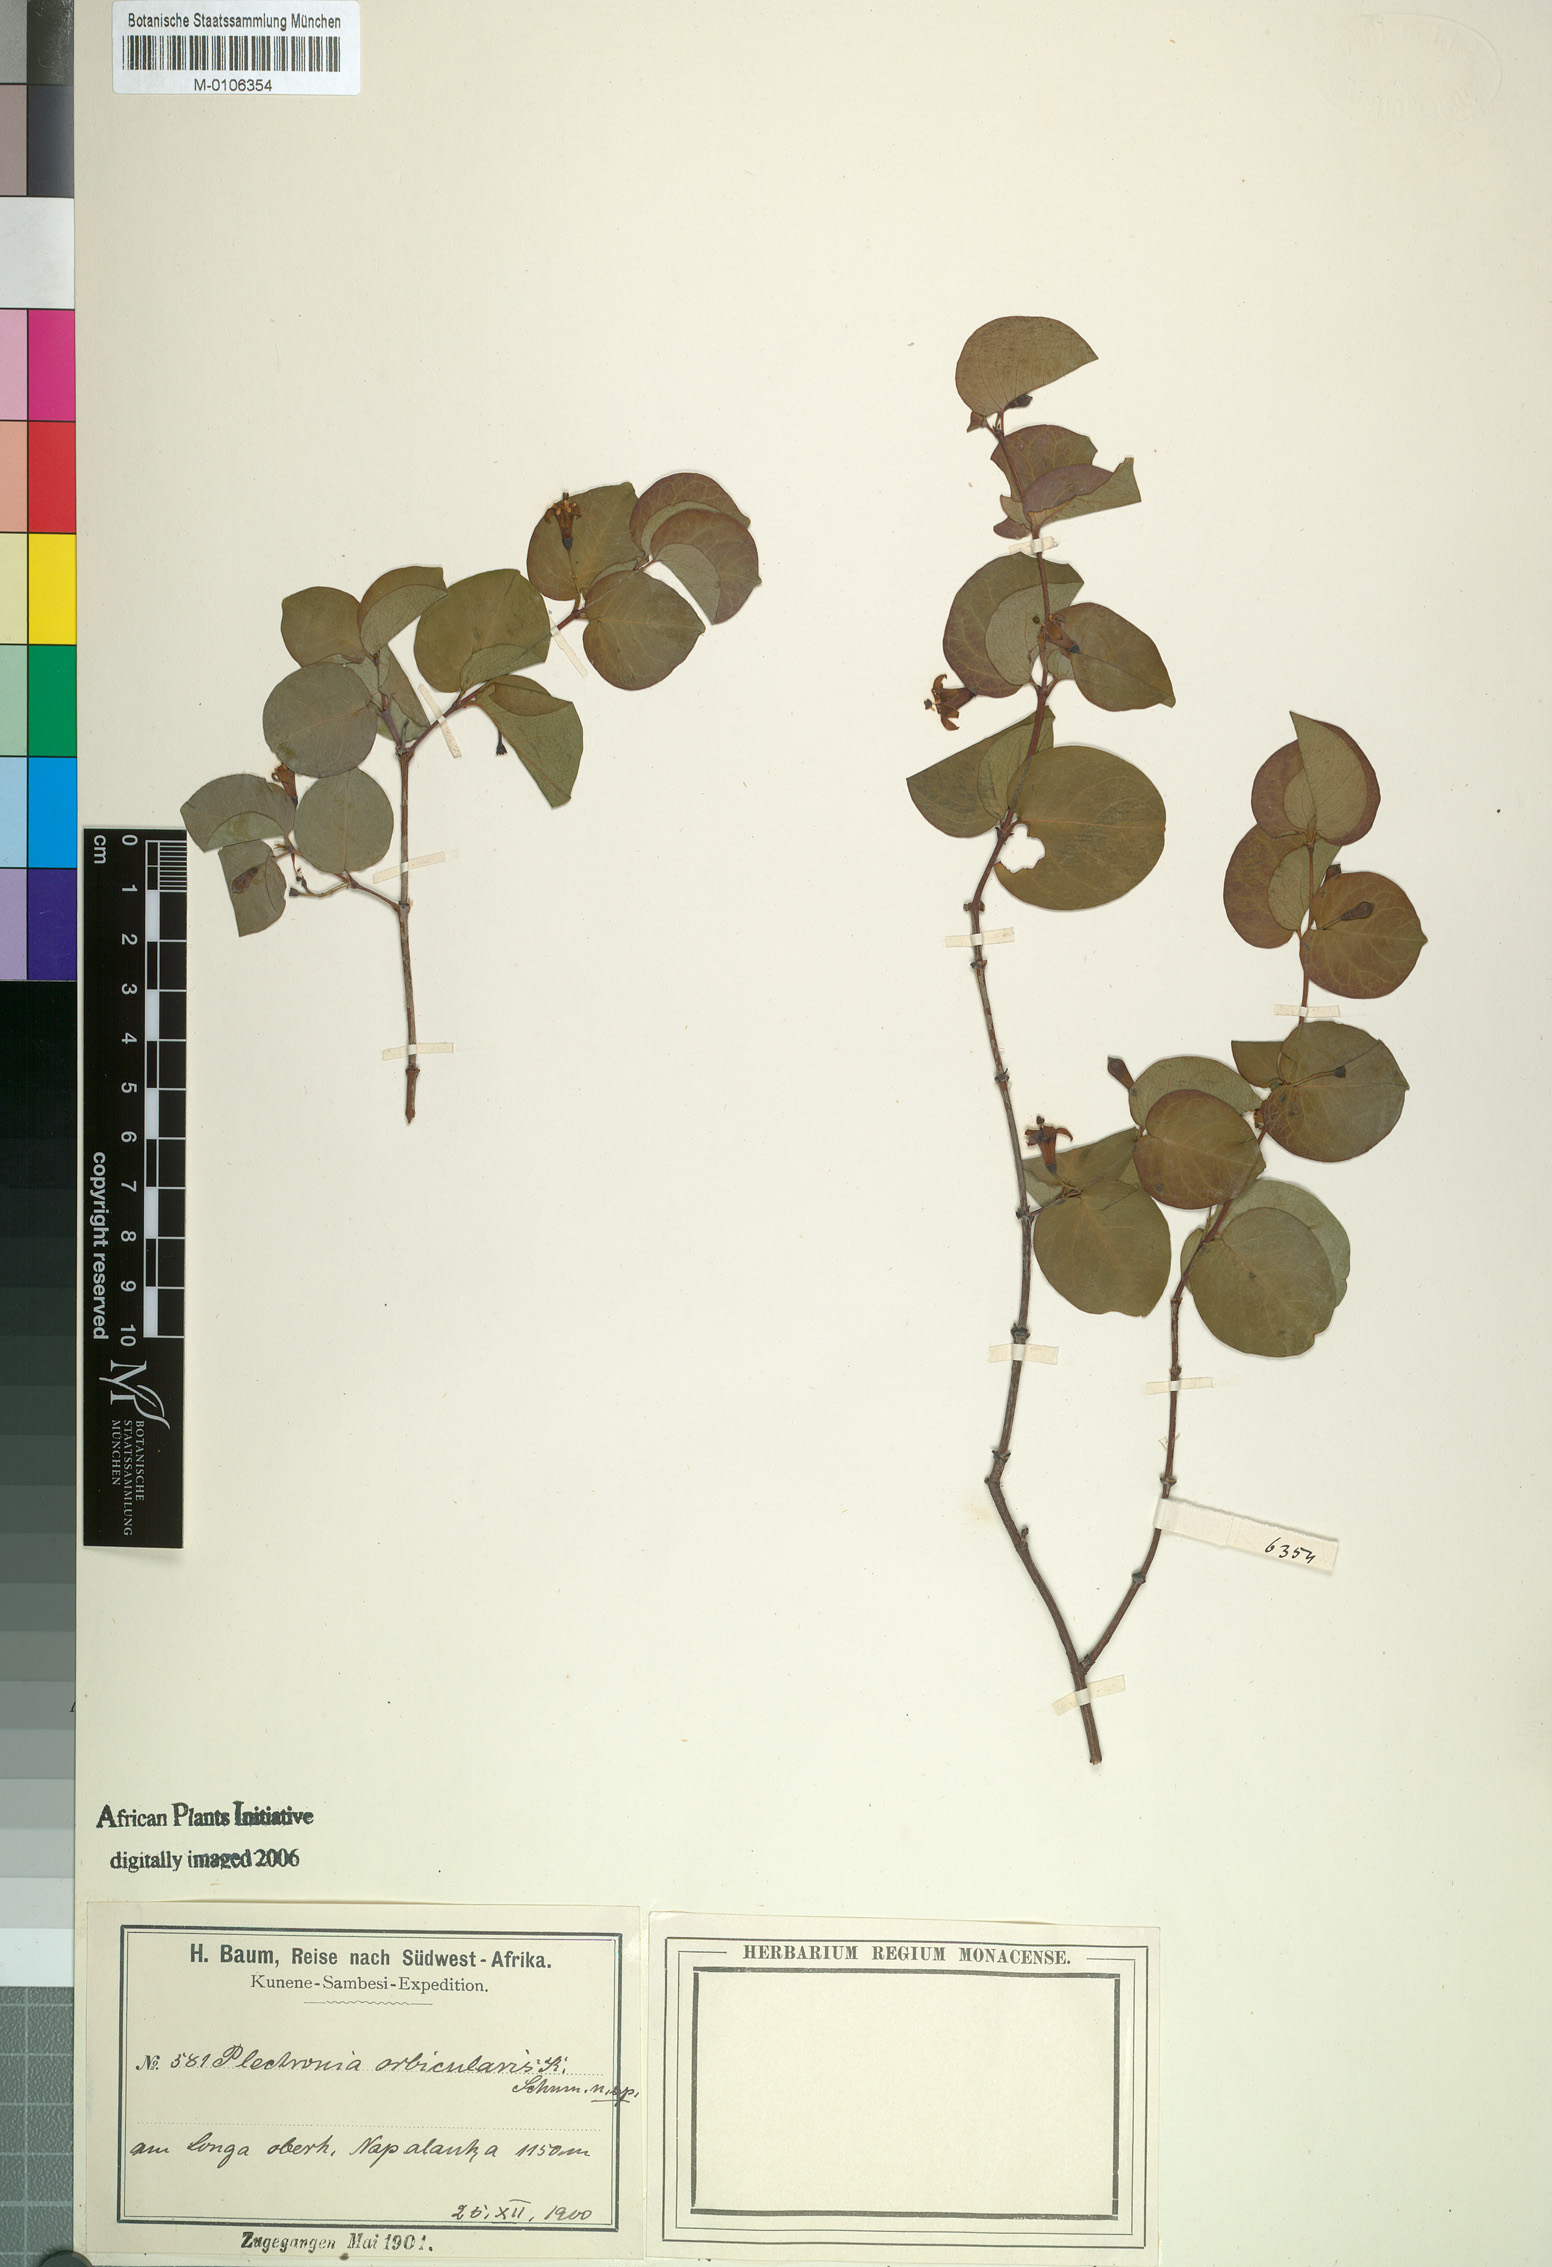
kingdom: Plantae
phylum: Tracheophyta
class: Magnoliopsida
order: Gentianales
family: Rubiaceae
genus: Rytigynia
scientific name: Rytigynia orbicularis
